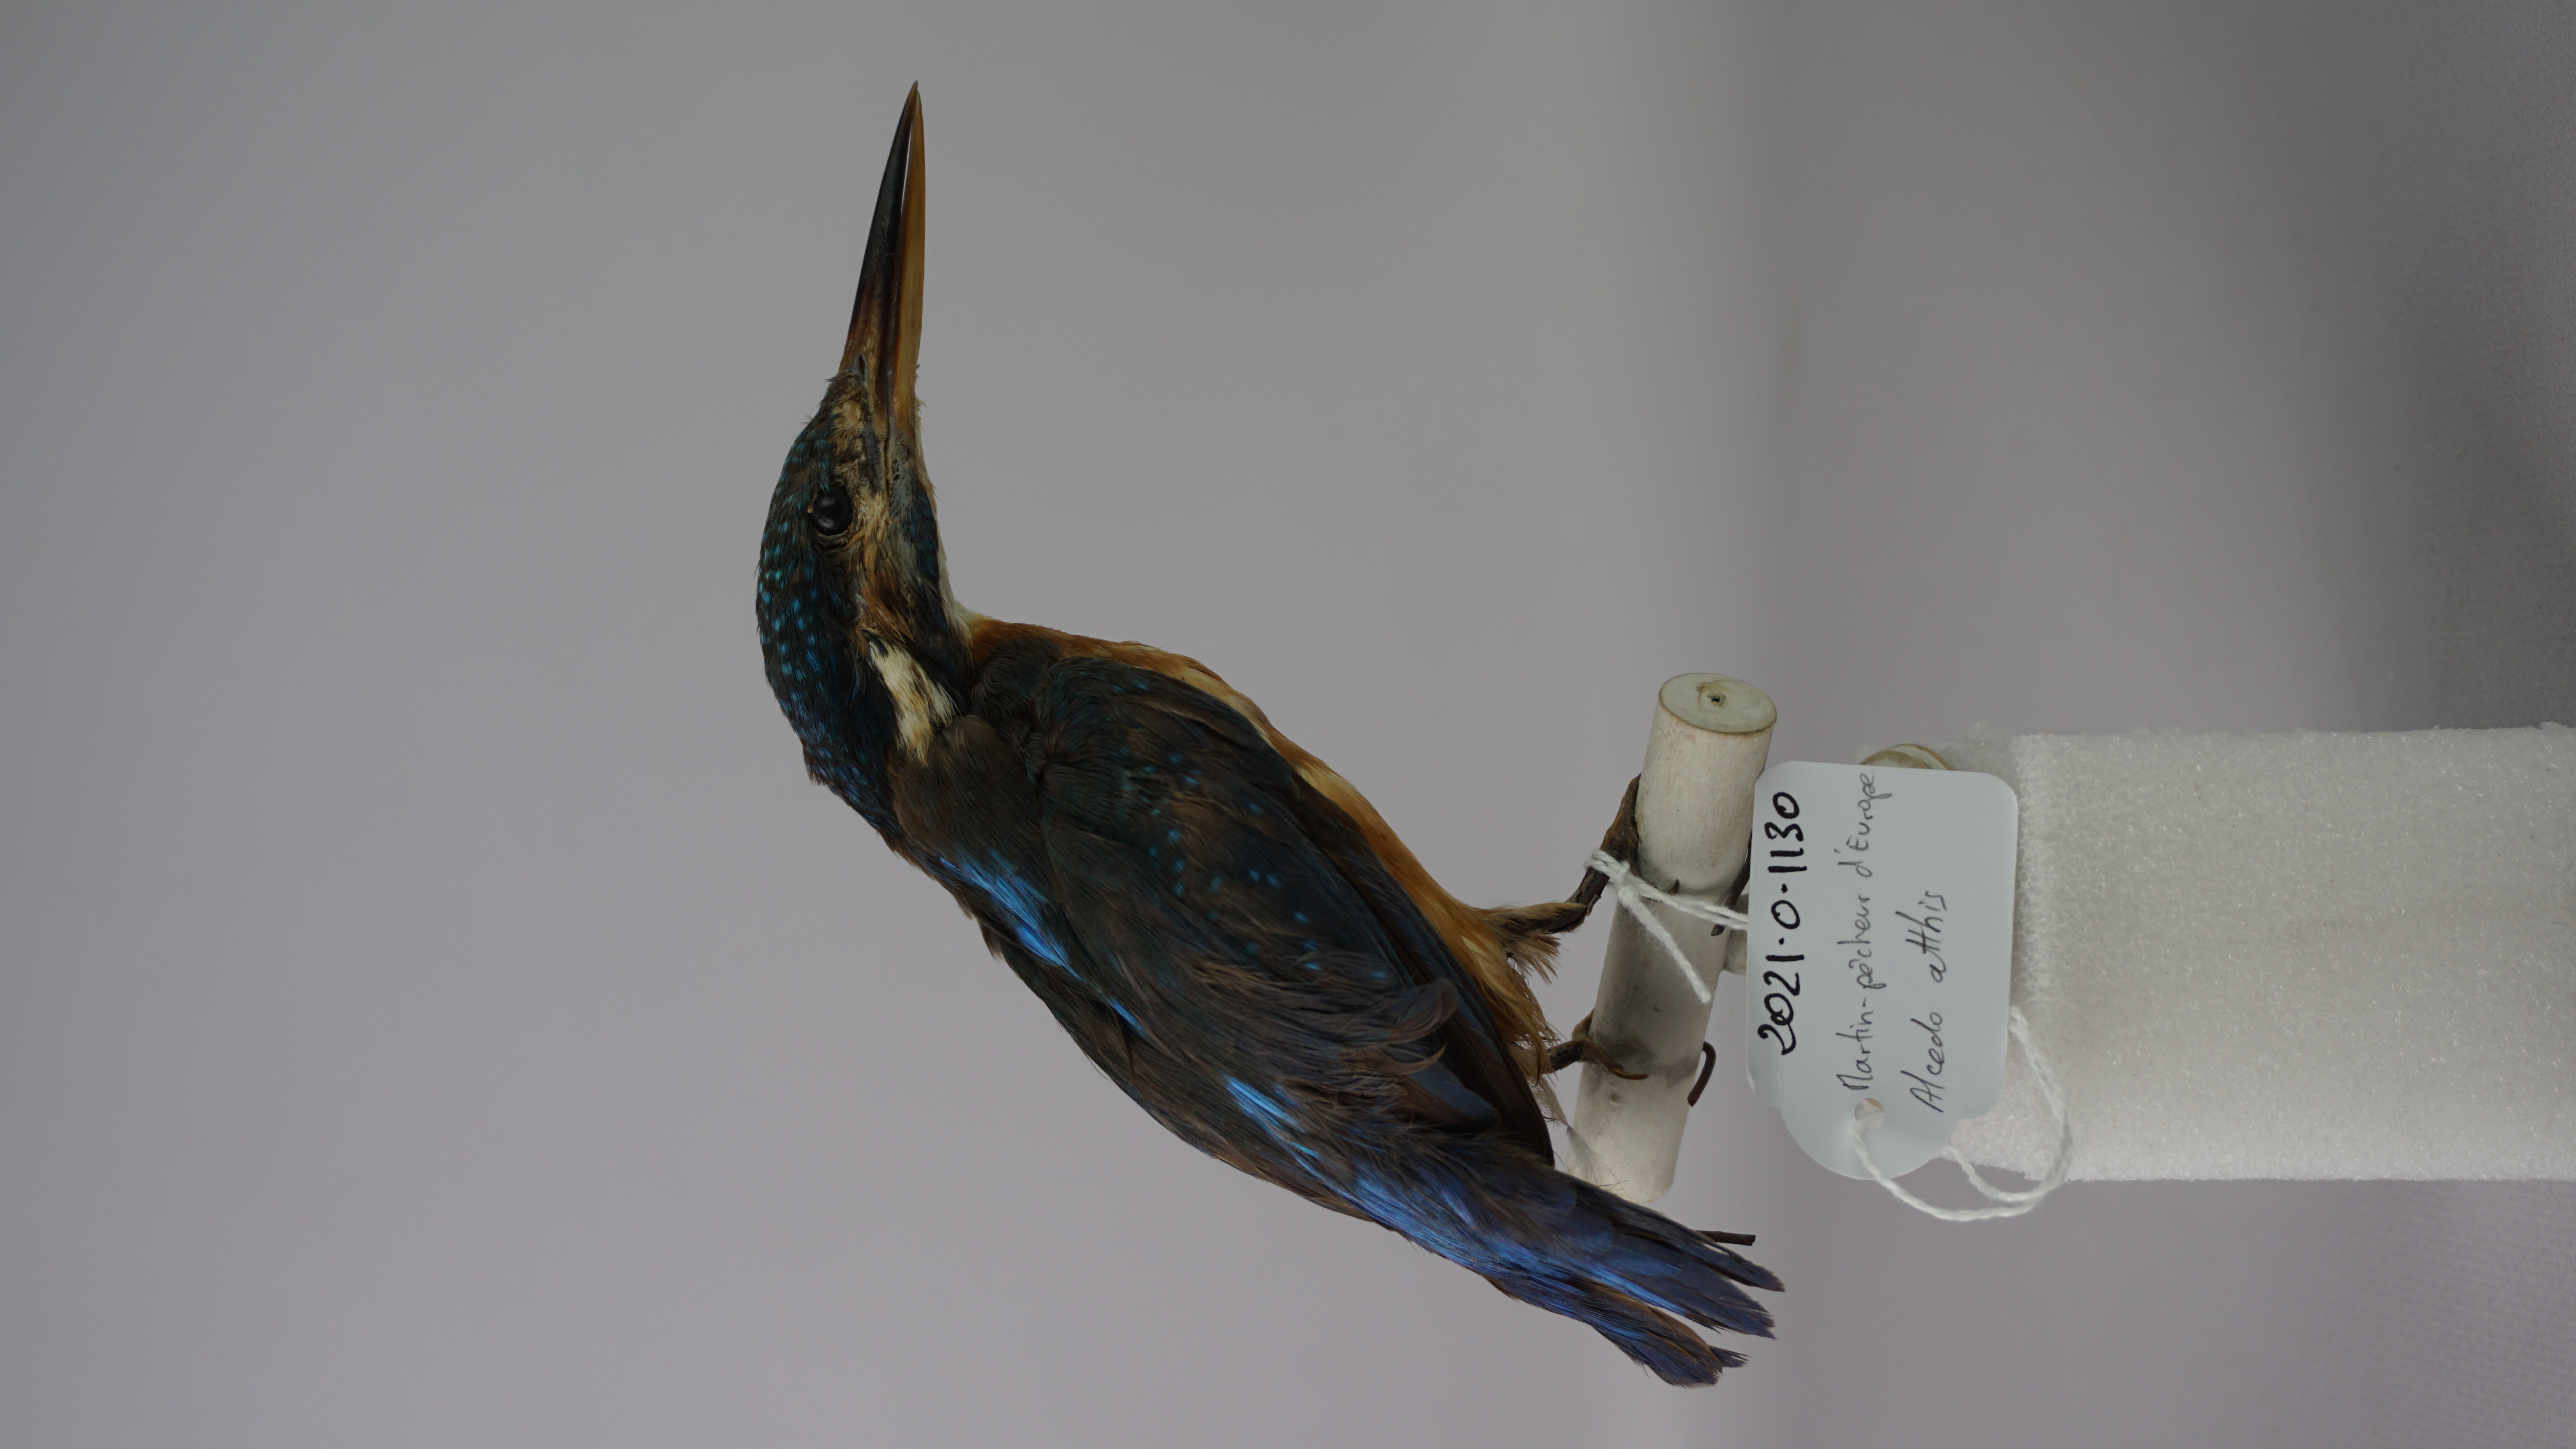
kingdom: Animalia
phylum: Chordata
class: Aves
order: Coraciiformes
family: Alcedinidae
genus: Ceyx
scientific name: Ceyx azureus
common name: Azure kingfisher
